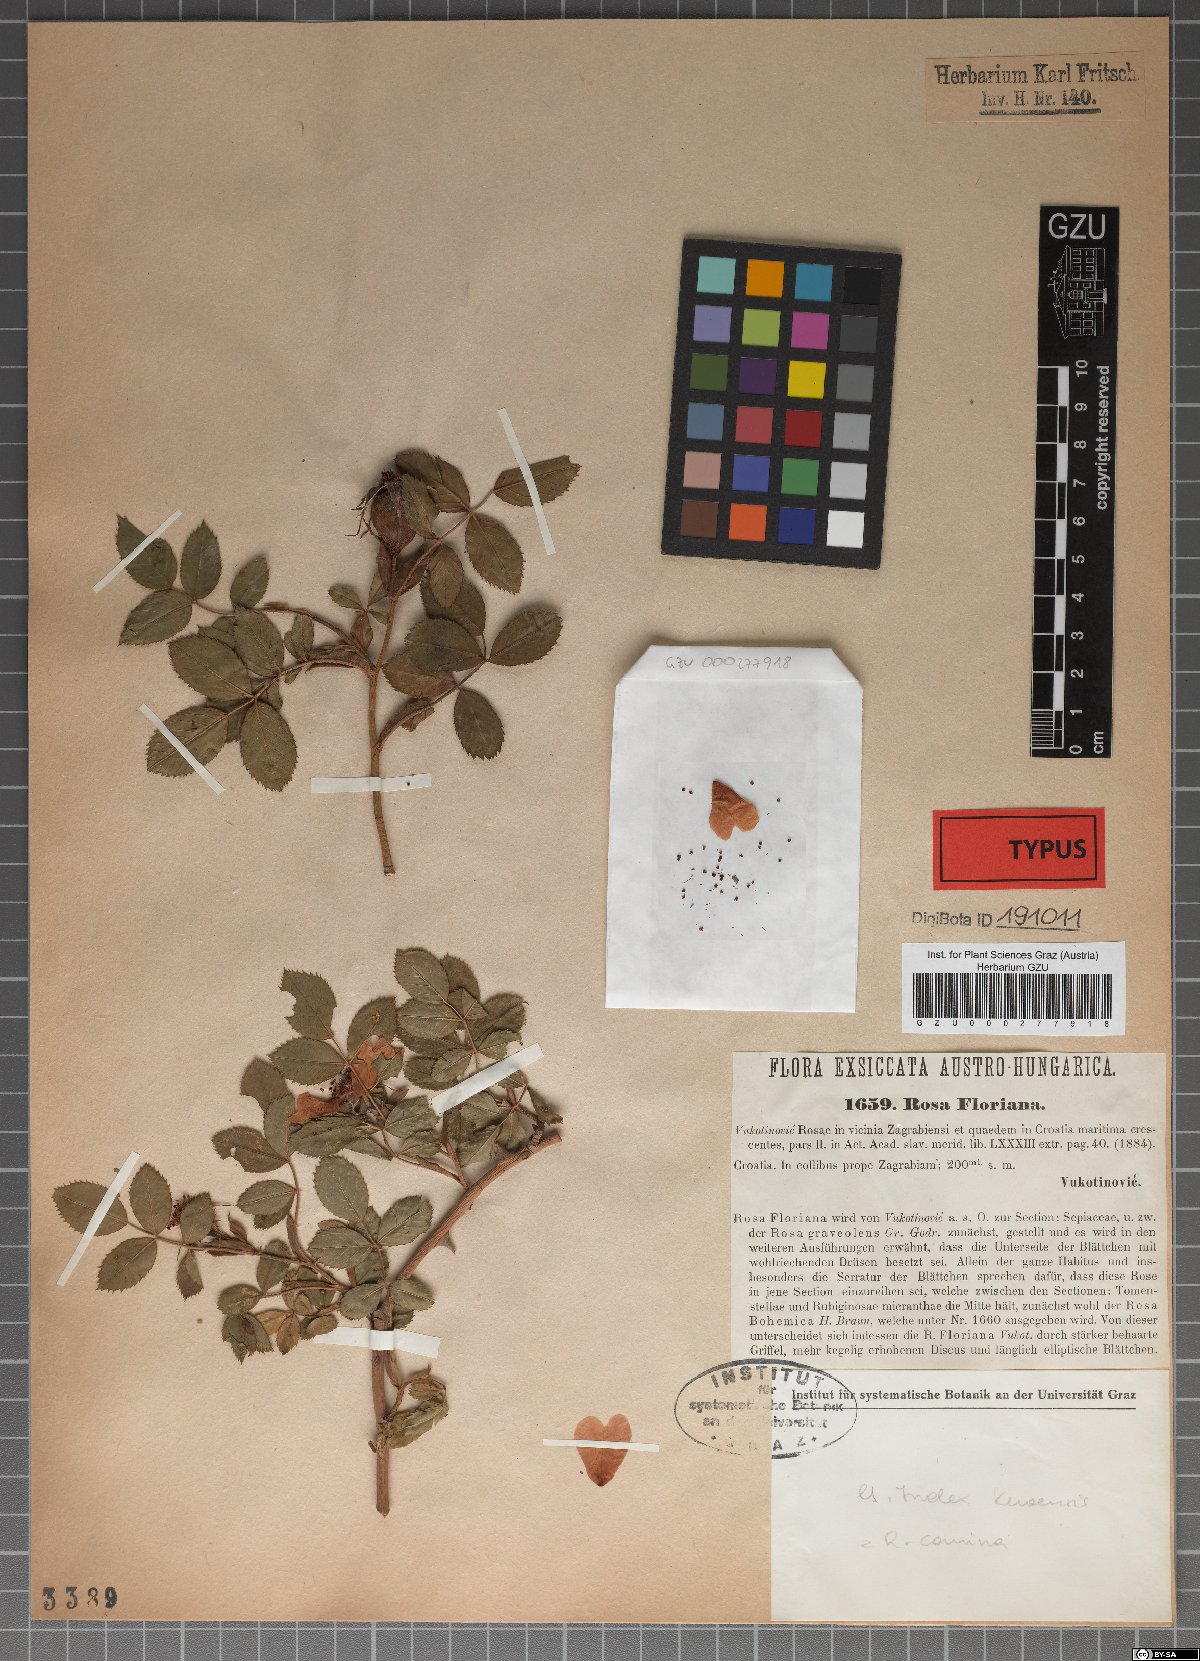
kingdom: Plantae
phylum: Tracheophyta
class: Magnoliopsida
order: Rosales
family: Rosaceae
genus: Rosa
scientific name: Rosa agrestis
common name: Fieldbriar
